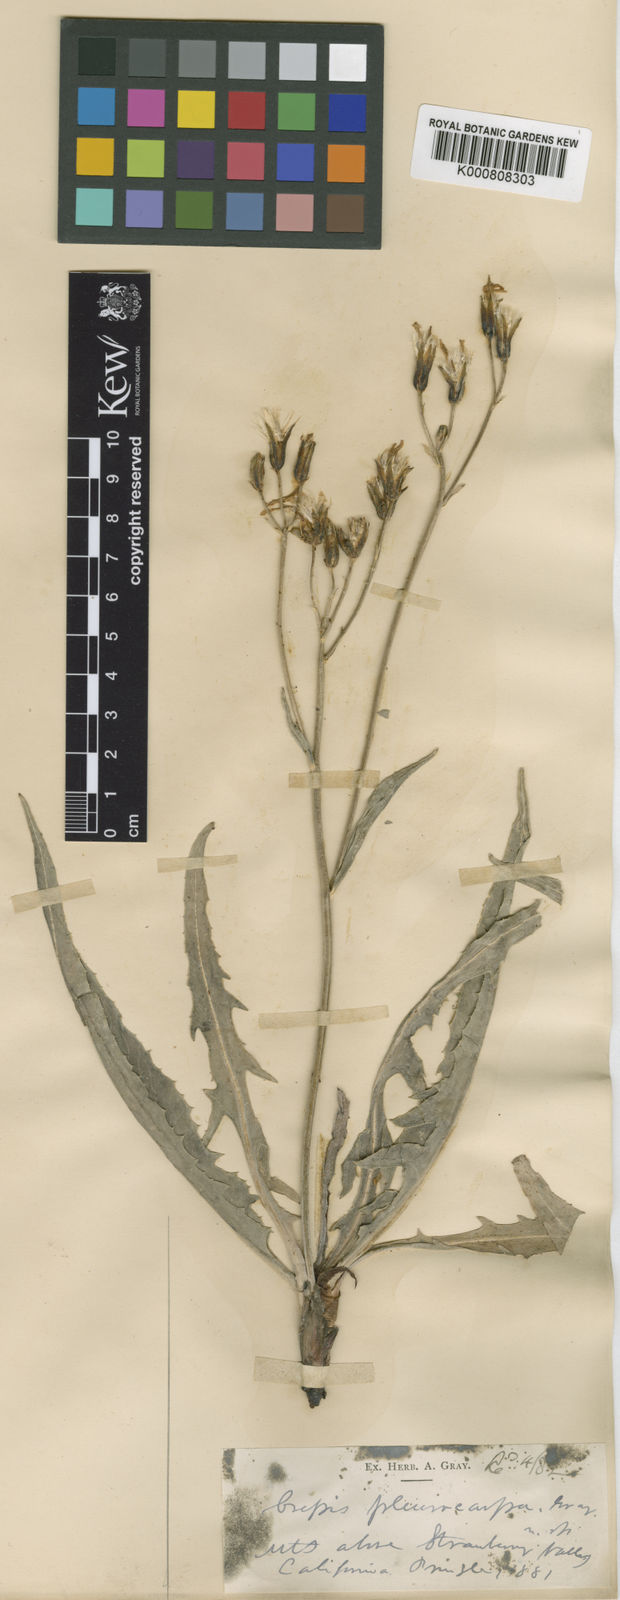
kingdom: Plantae
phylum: Tracheophyta
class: Magnoliopsida
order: Asterales
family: Asteraceae
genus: Crepis
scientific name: Crepis pleurocarpa
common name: Naked hawk's-beard
